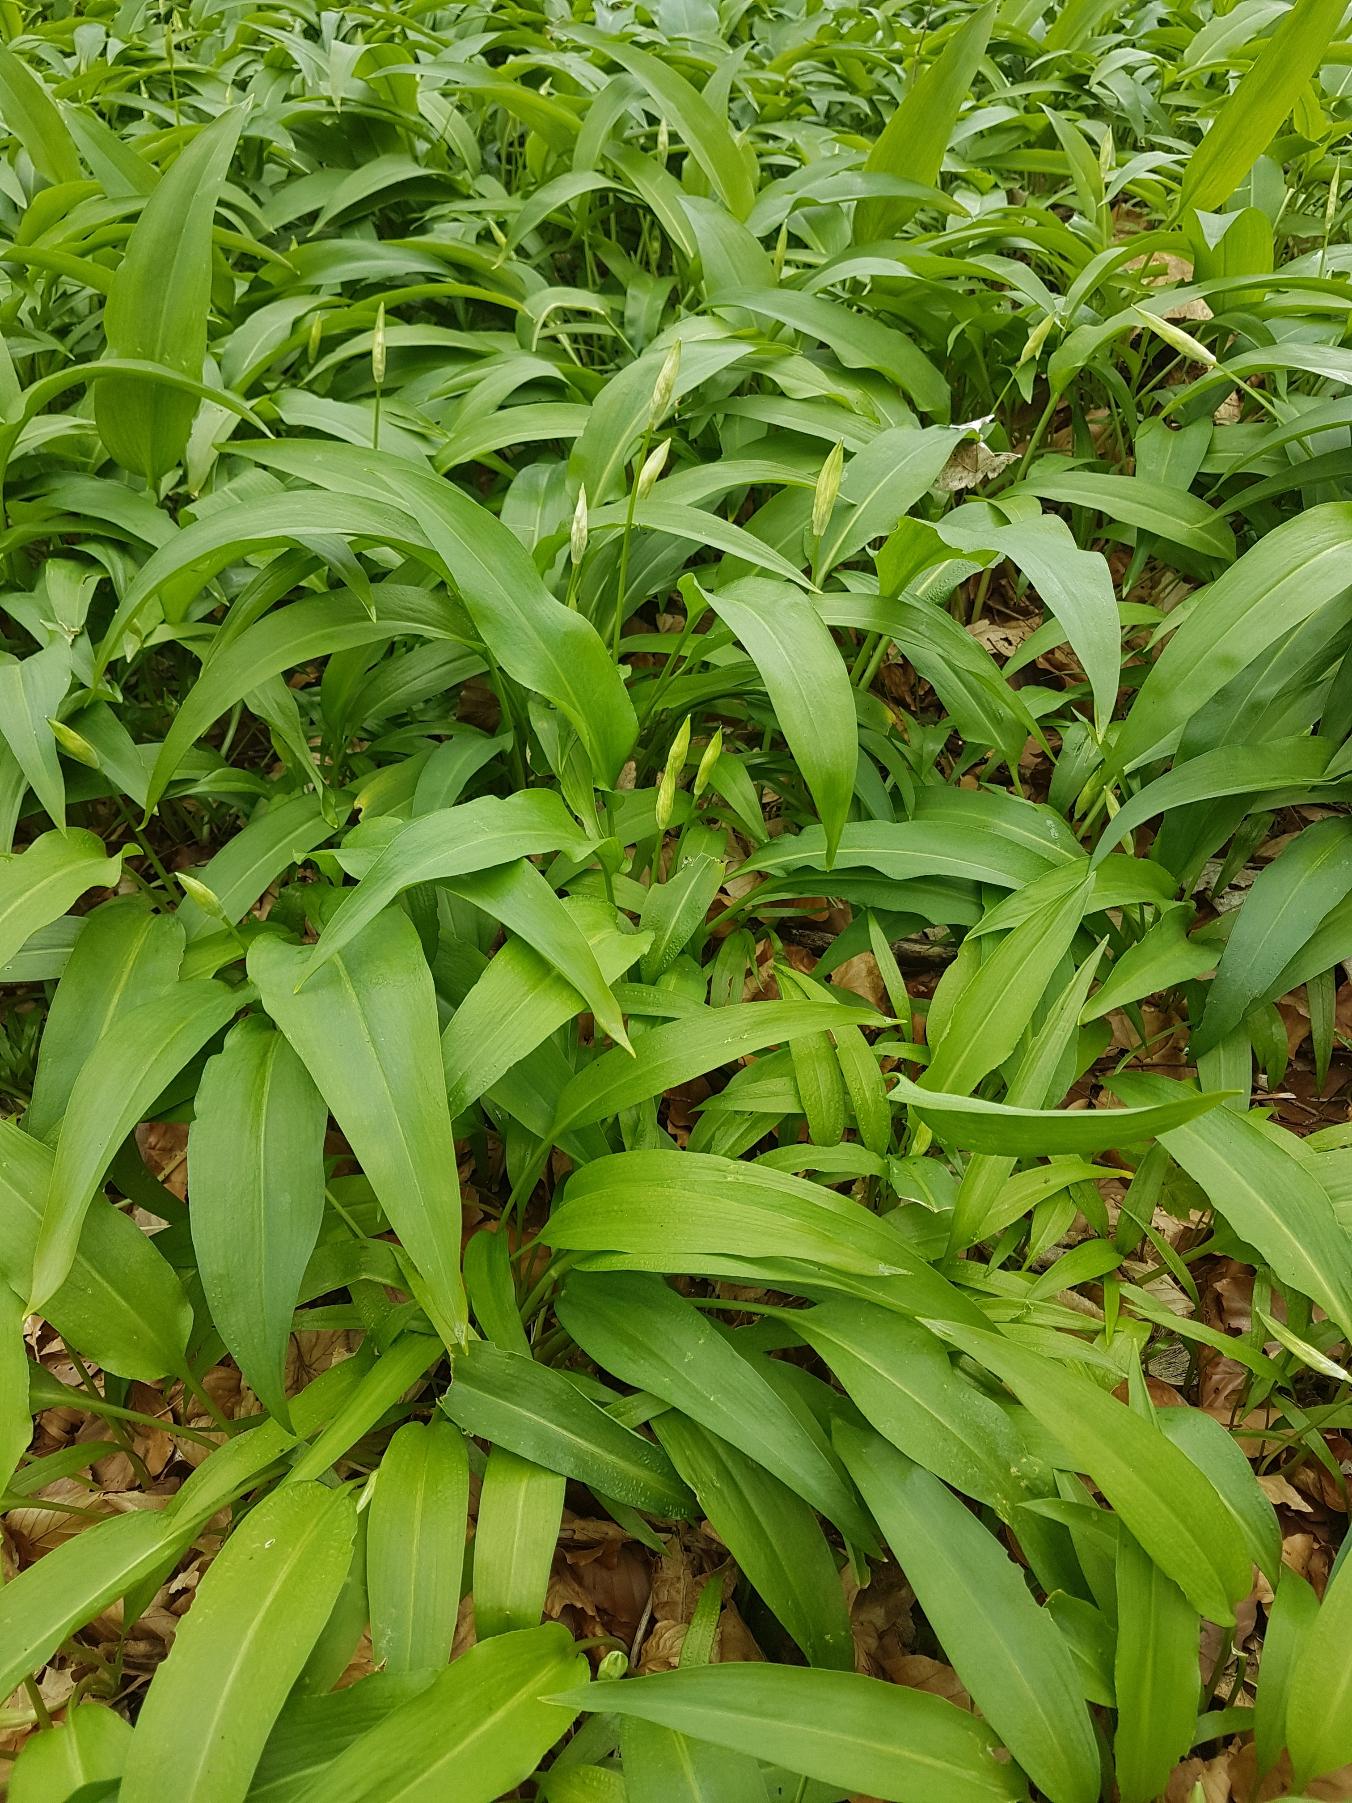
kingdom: Plantae
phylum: Tracheophyta
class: Liliopsida
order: Asparagales
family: Amaryllidaceae
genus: Allium
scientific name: Allium ursinum
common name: Rams-løg
